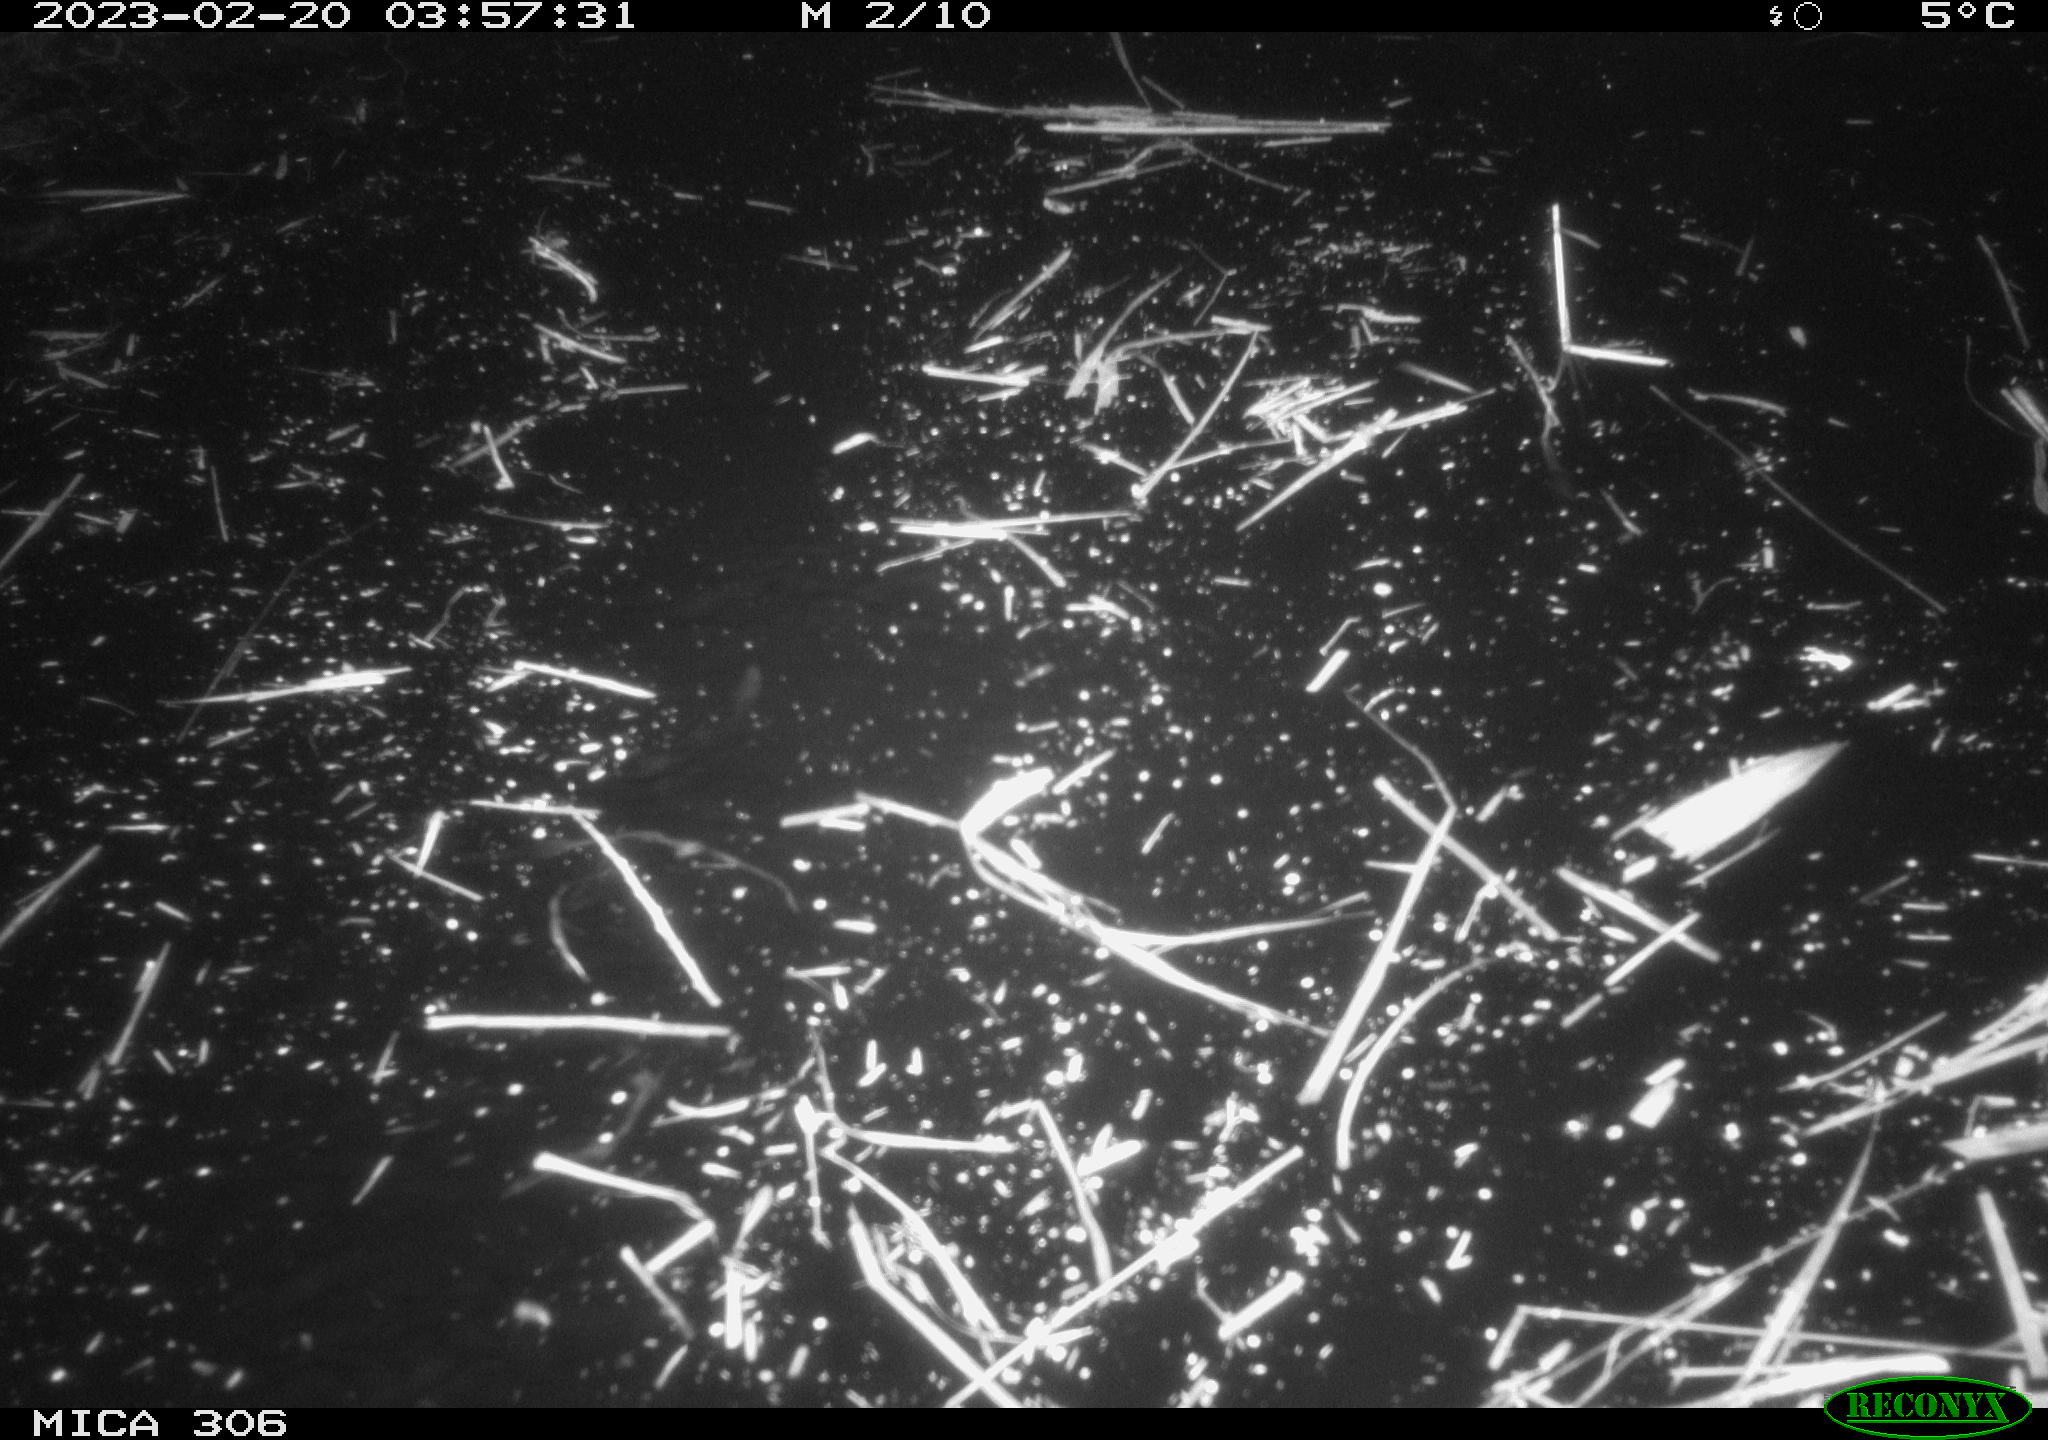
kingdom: Animalia
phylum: Chordata
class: Mammalia
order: Rodentia
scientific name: Rodentia
